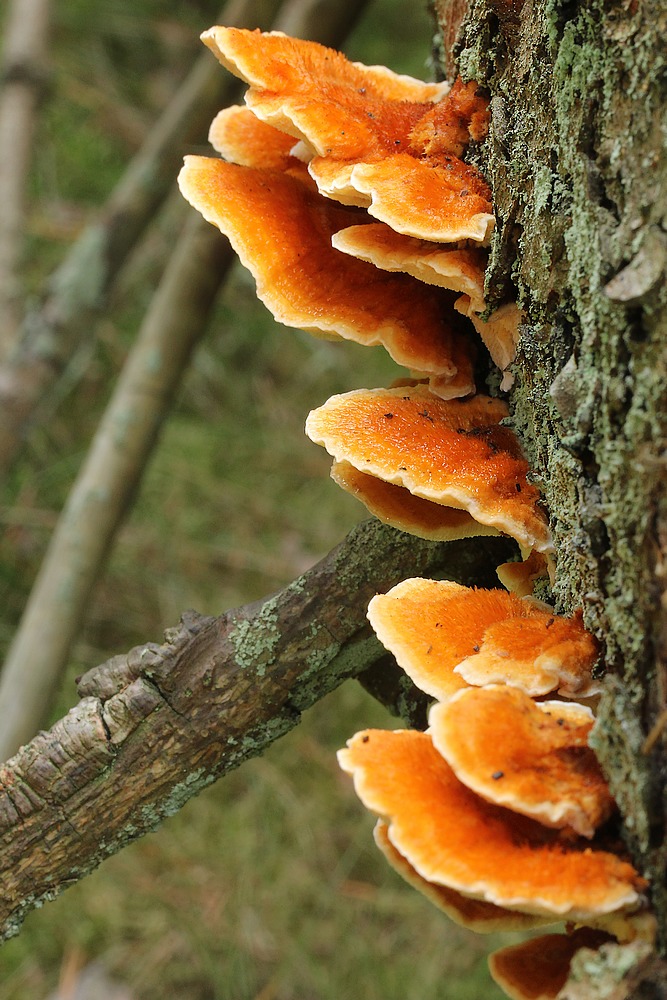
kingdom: Fungi
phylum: Basidiomycota
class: Agaricomycetes
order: Polyporales
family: Pycnoporellaceae
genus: Pycnoporellus
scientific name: Pycnoporellus fulgens
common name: flammeporesvamp
